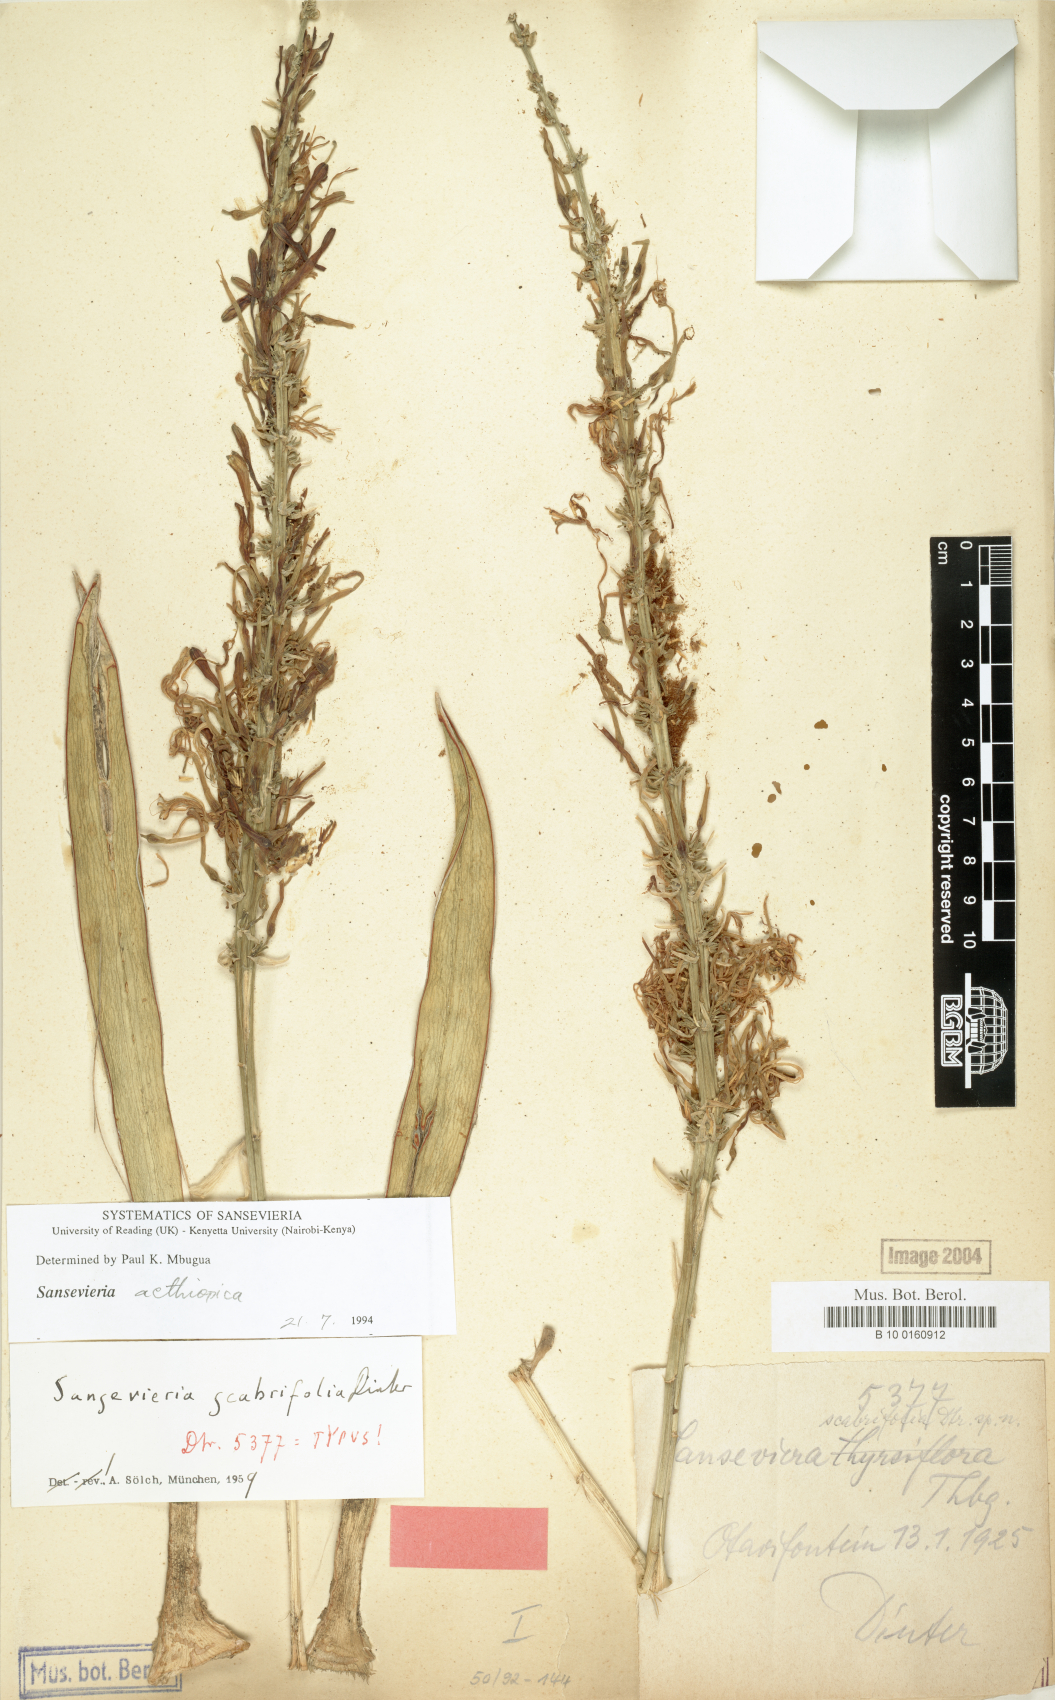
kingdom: Plantae
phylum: Tracheophyta
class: Liliopsida
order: Asparagales
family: Asparagaceae
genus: Dracaena
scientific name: Dracaena aethiopica
